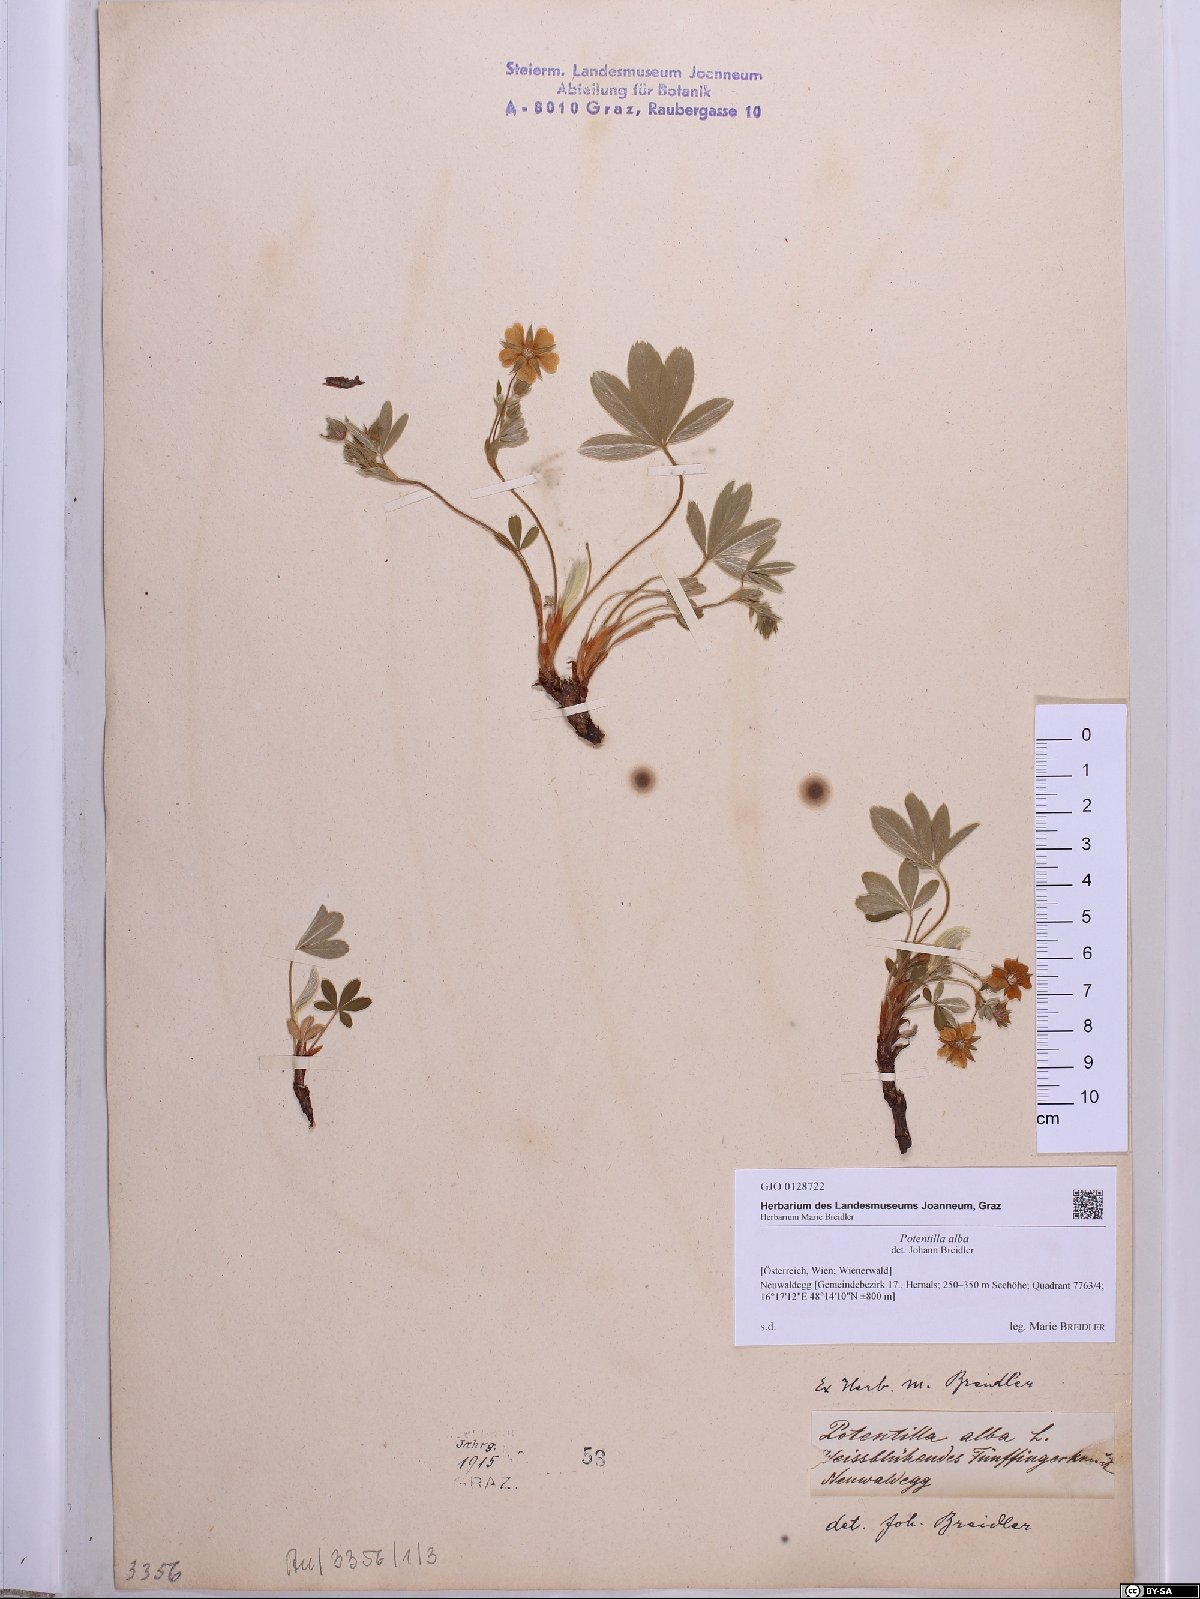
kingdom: Plantae
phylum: Tracheophyta
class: Magnoliopsida
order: Rosales
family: Rosaceae
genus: Potentilla
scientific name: Potentilla alba
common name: White cinquefoil
